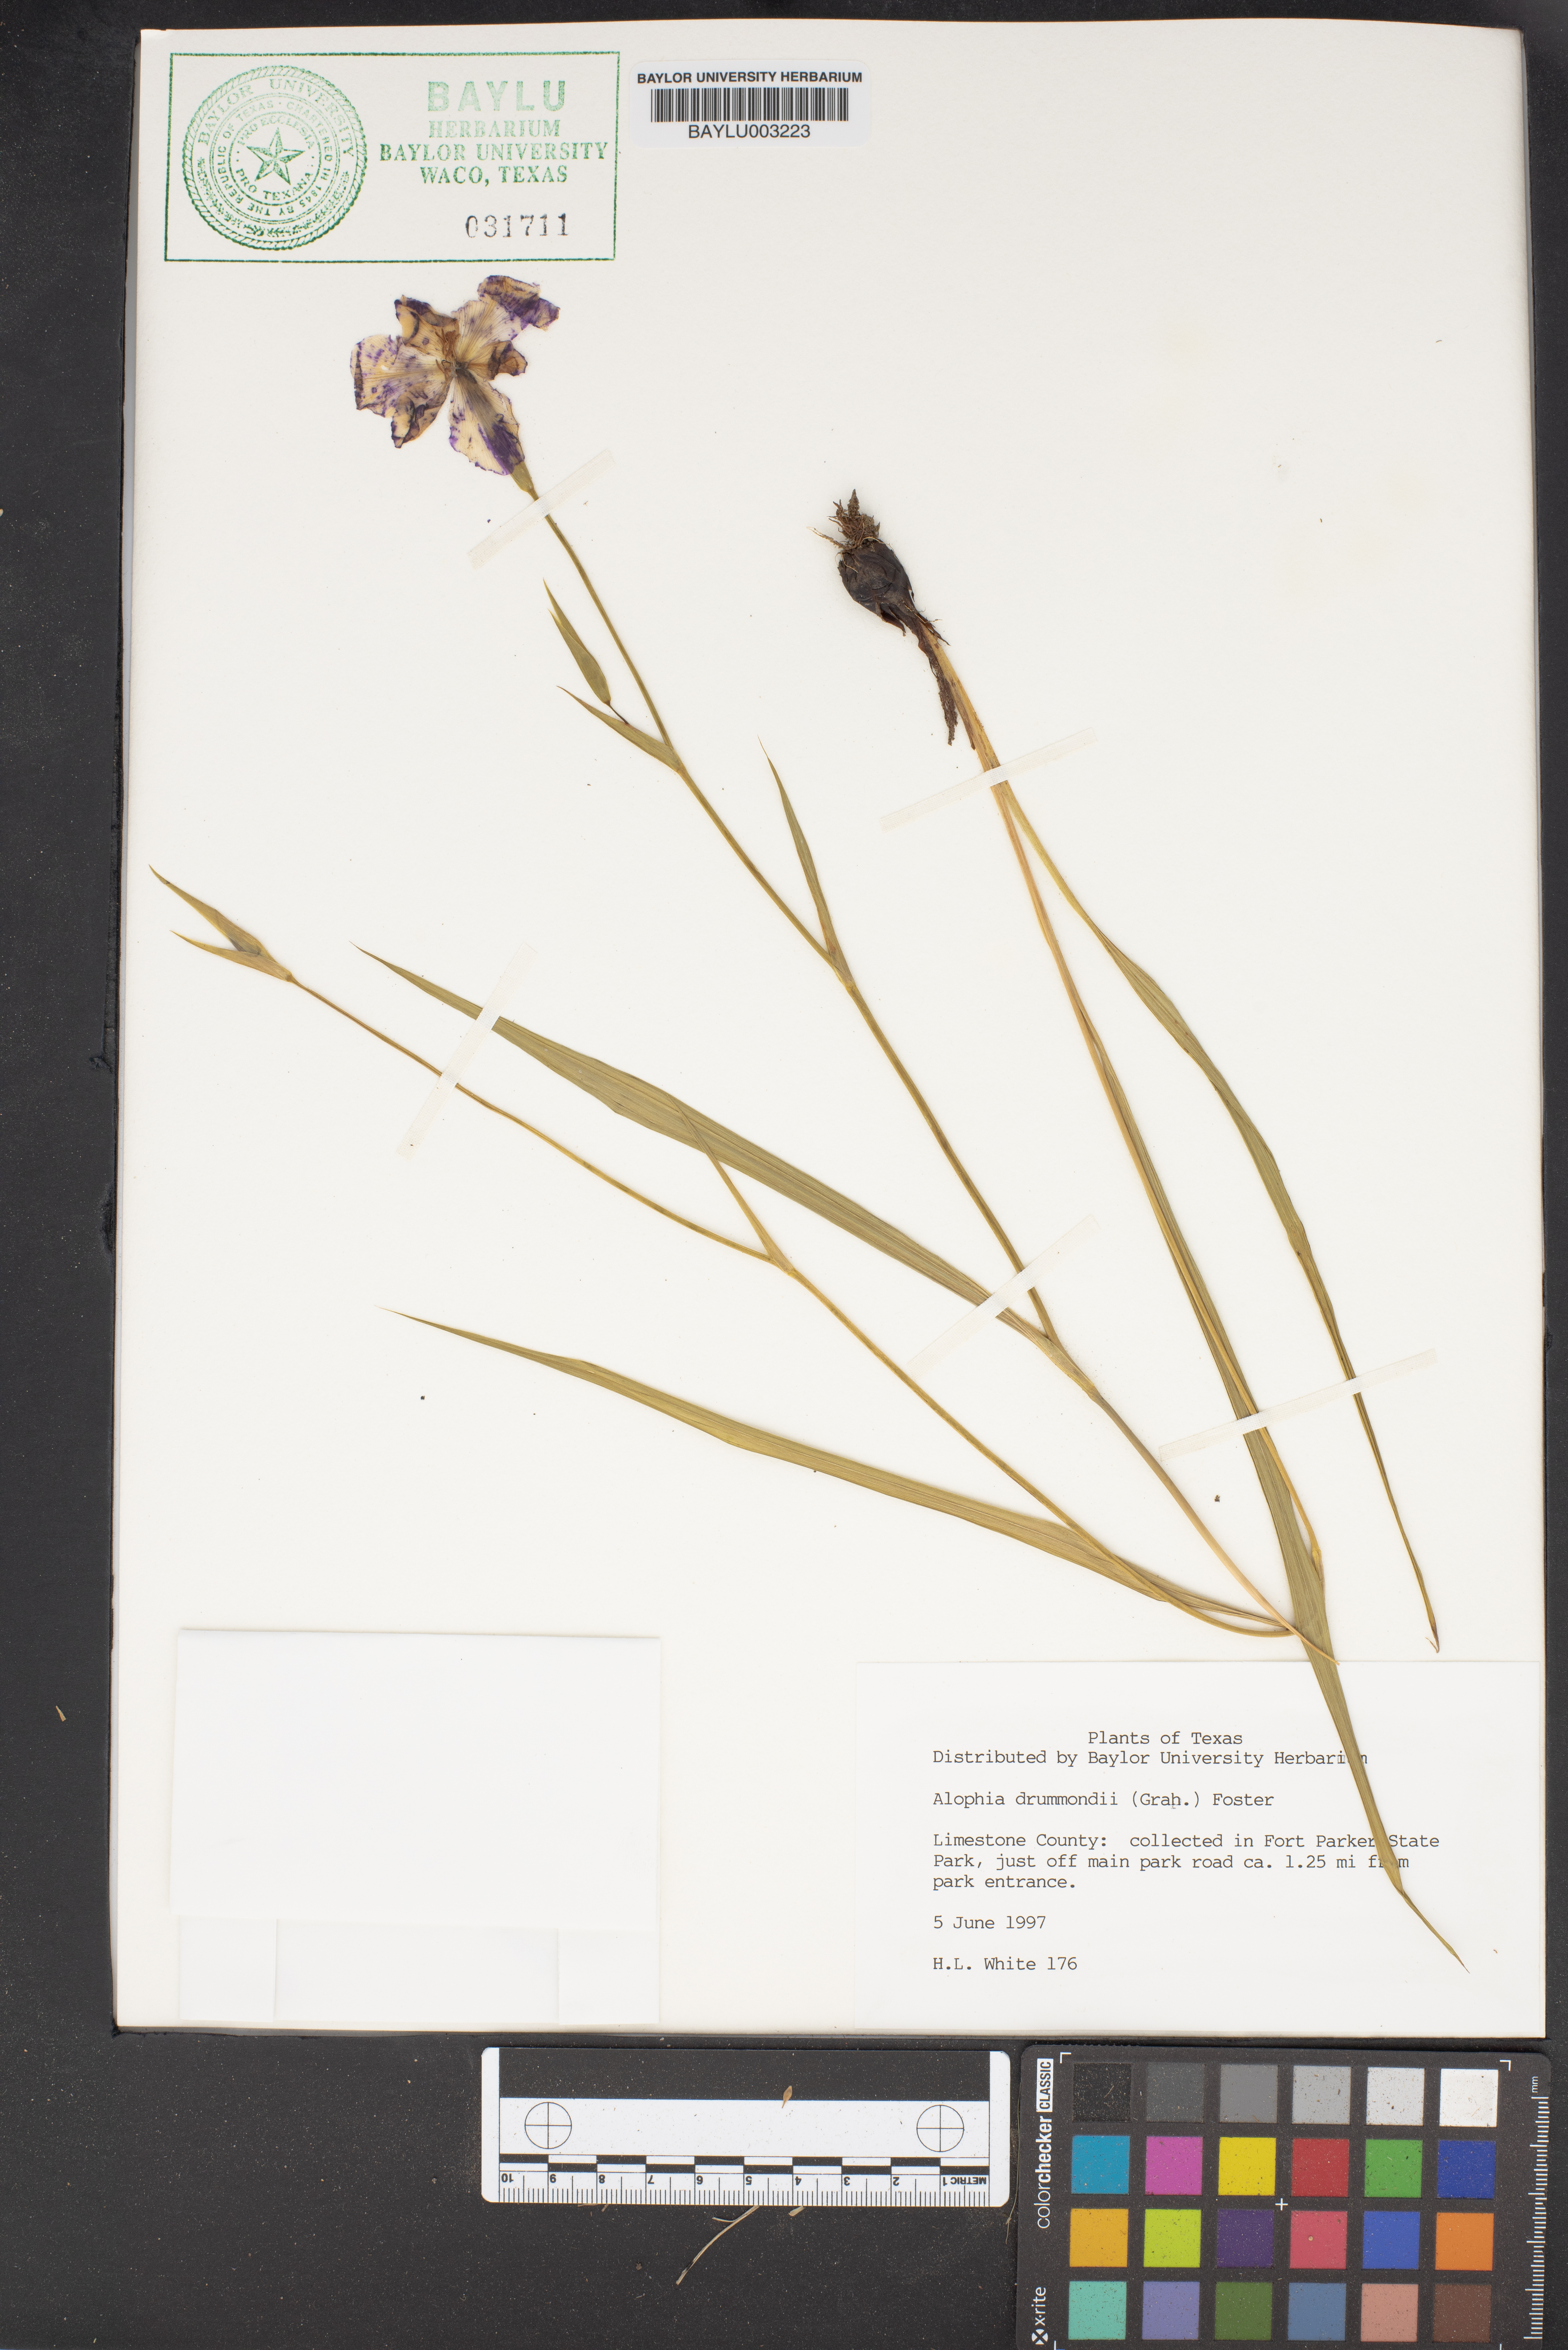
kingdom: Plantae
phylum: Tracheophyta
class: Liliopsida
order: Asparagales
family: Iridaceae
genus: Alophia
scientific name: Alophia drummondii
